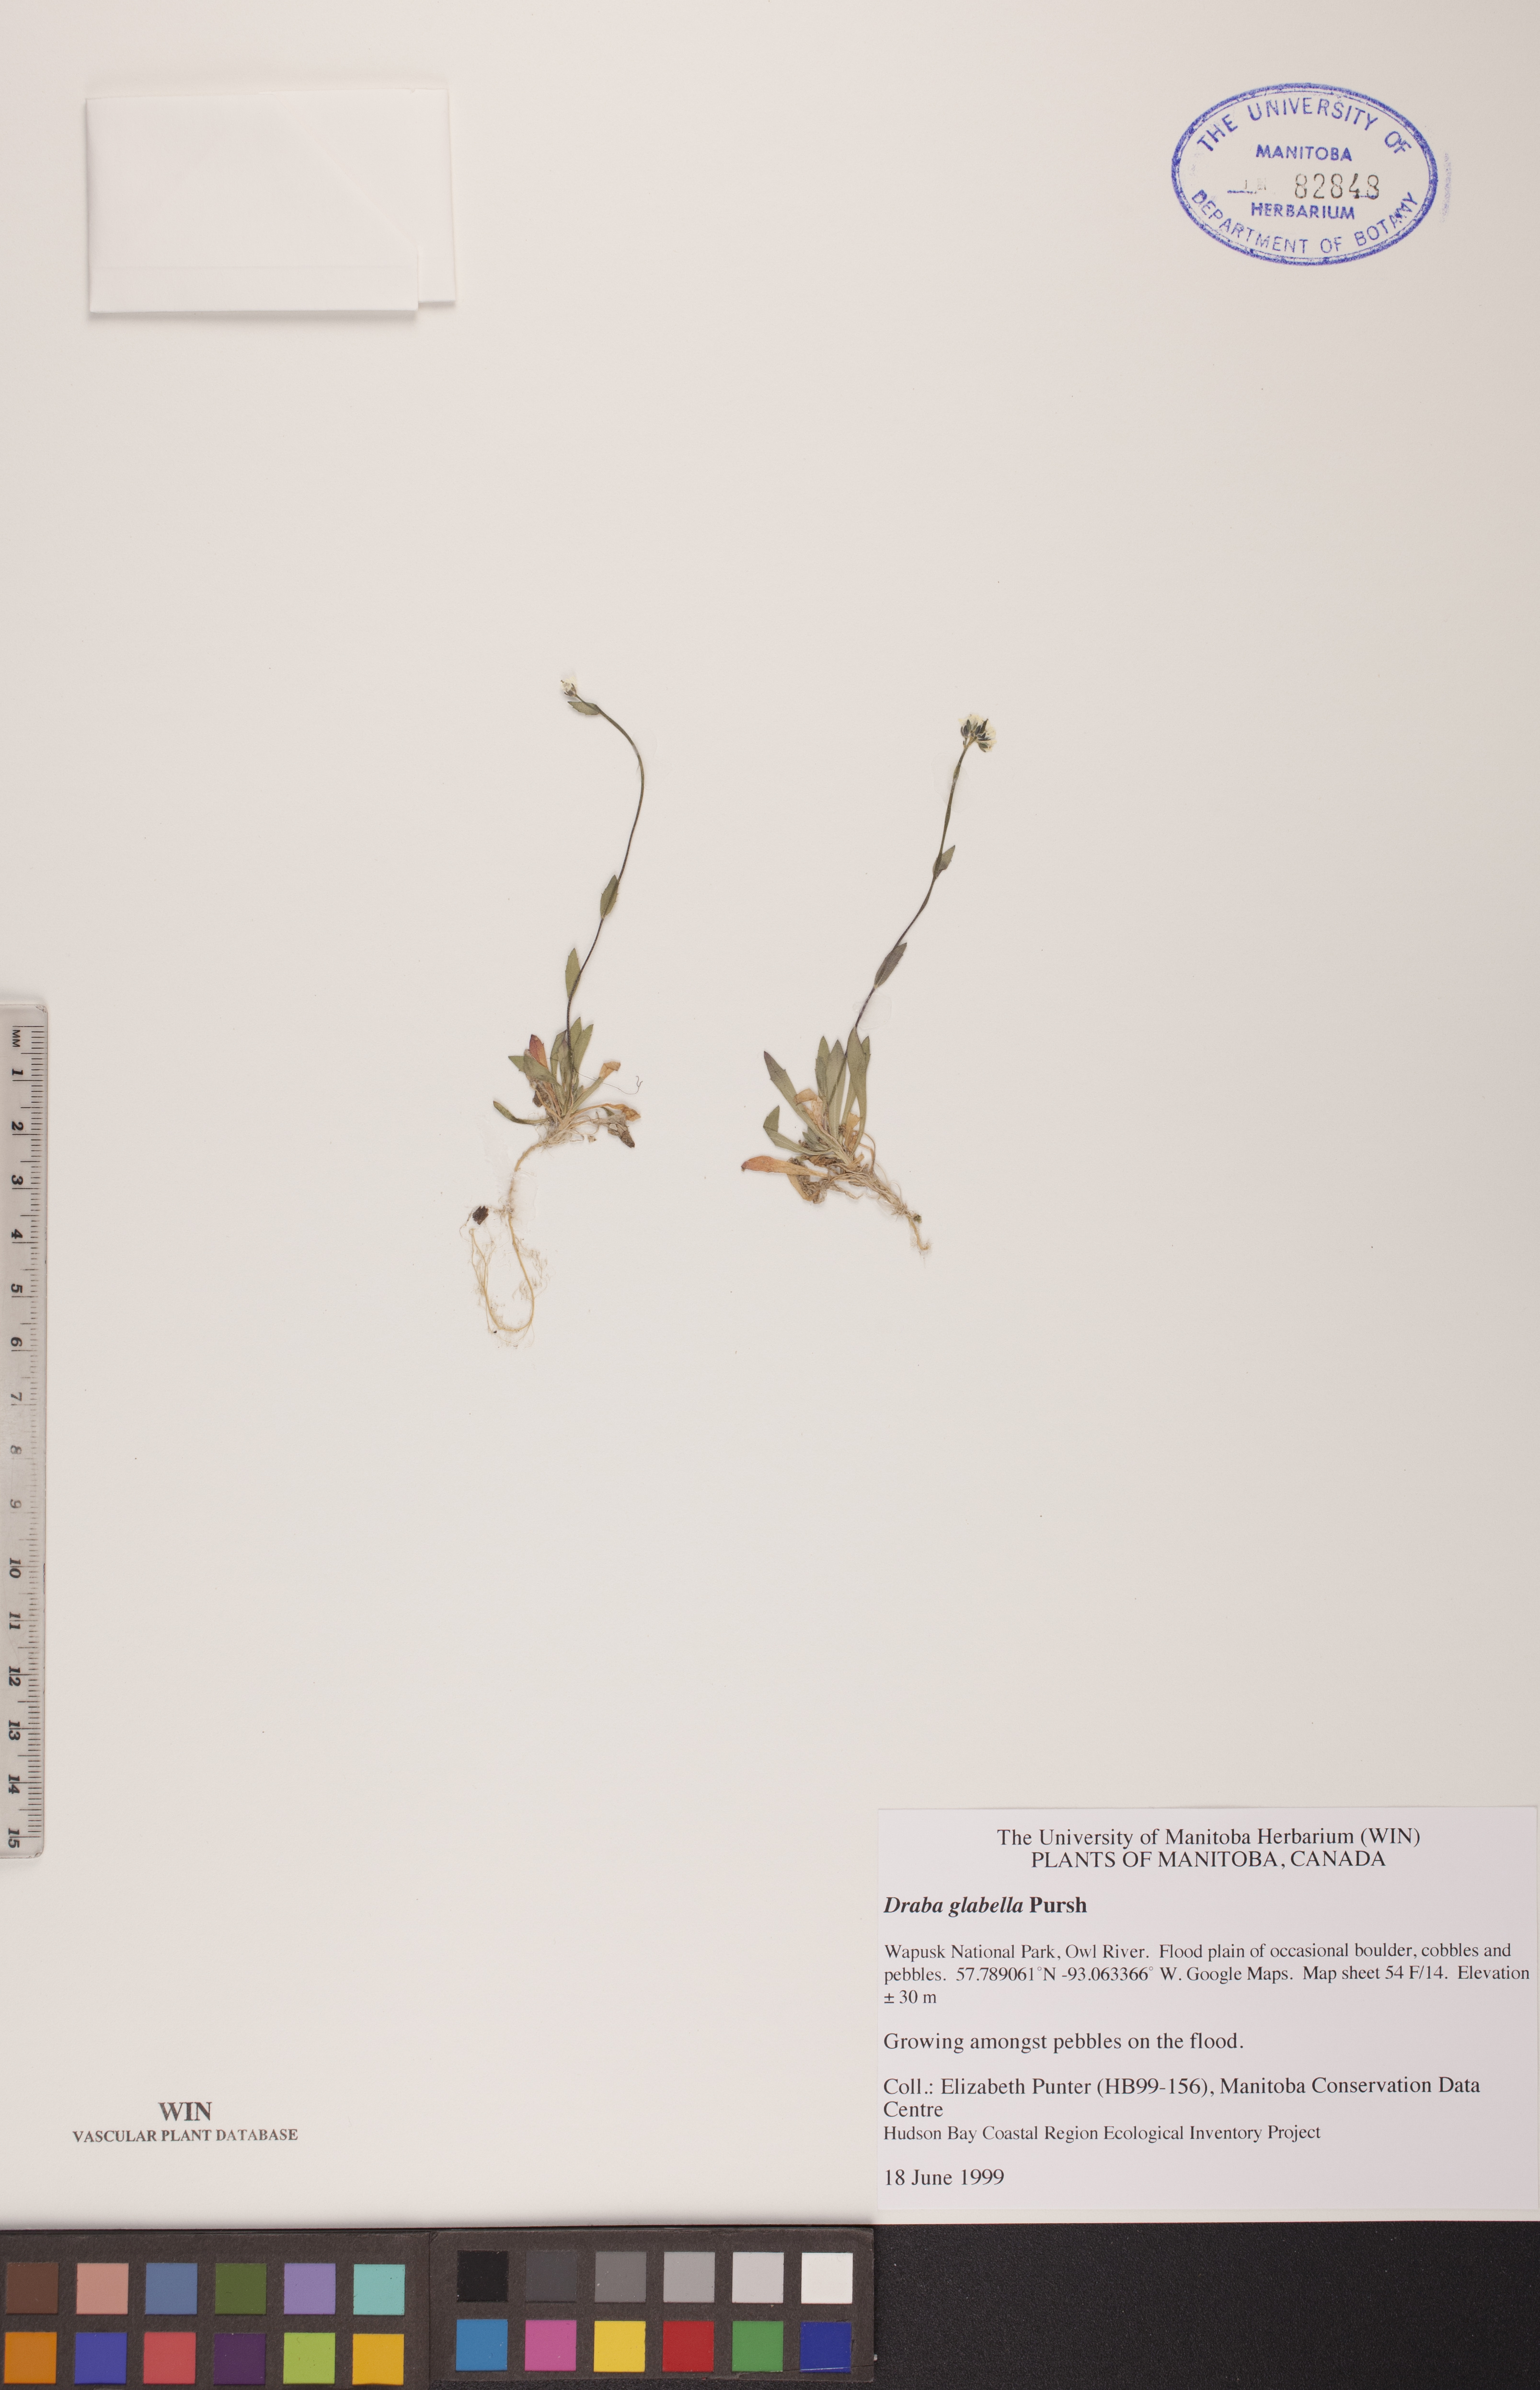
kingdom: Plantae
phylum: Tracheophyta
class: Magnoliopsida
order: Brassicales
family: Brassicaceae
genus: Draba
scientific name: Draba glabella
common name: Glaucous draba
